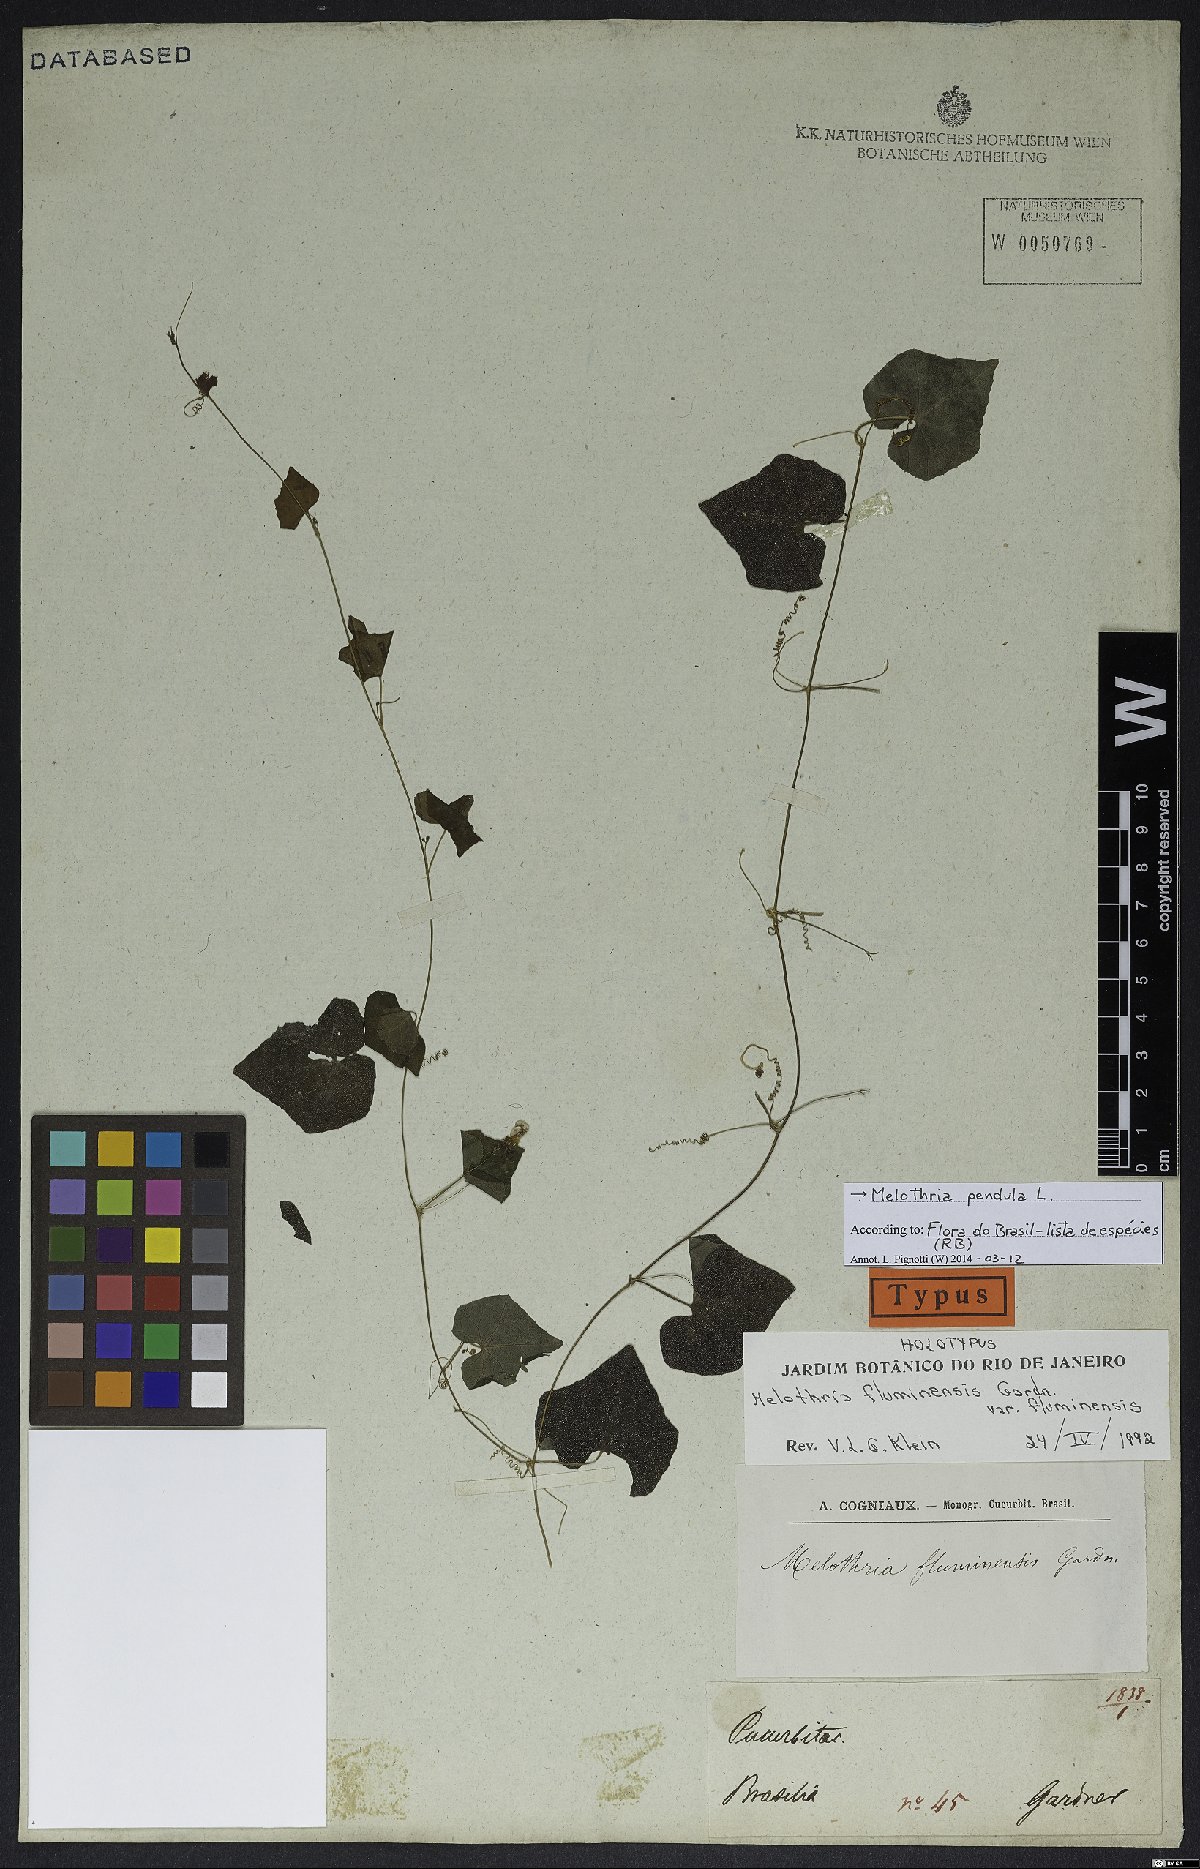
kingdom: Plantae
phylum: Tracheophyta
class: Magnoliopsida
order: Cucurbitales
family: Cucurbitaceae
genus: Melothria
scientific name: Melothria pendula
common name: Creeping-cucumber
